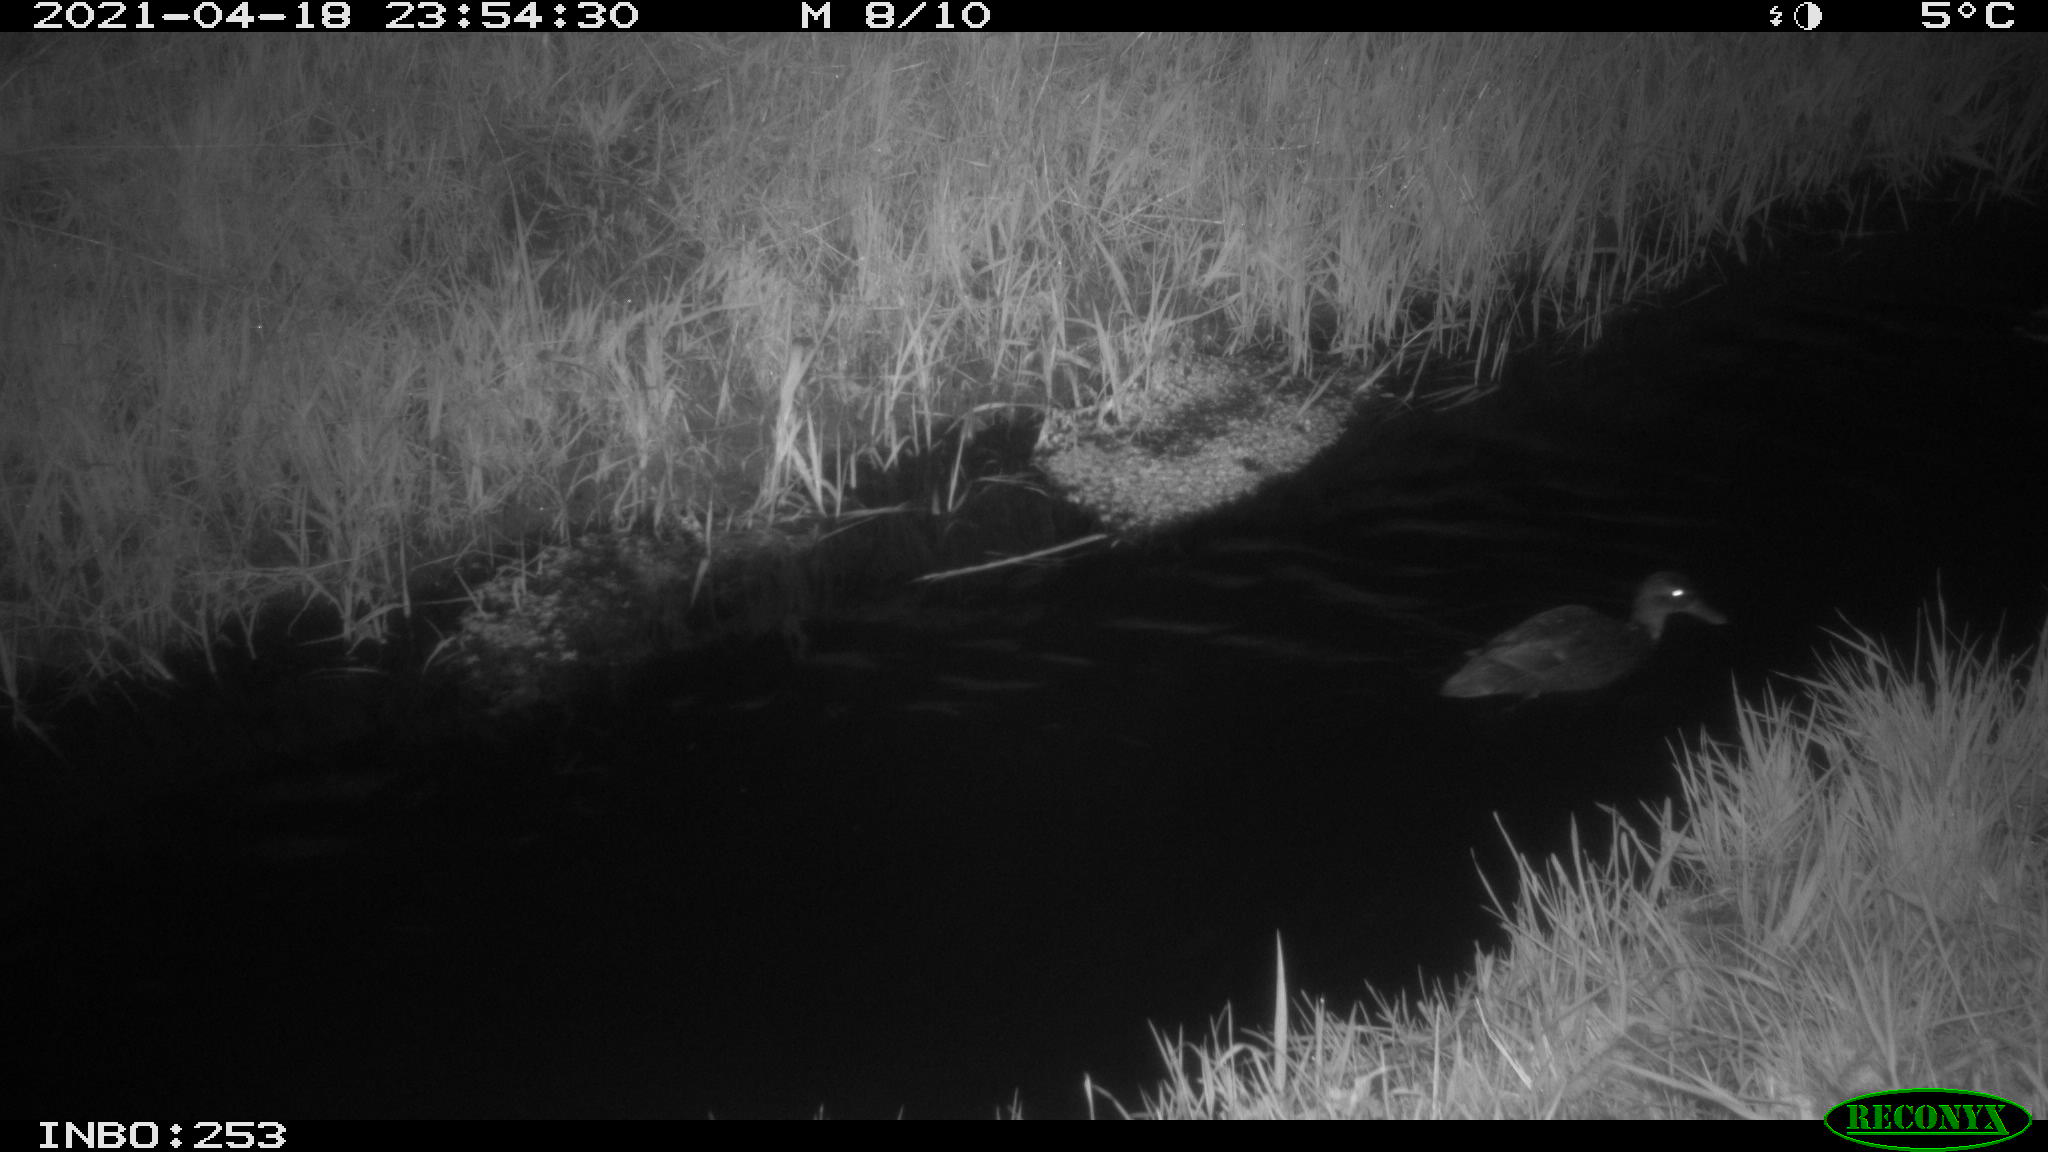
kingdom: Animalia
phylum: Chordata
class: Aves
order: Anseriformes
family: Anatidae
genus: Anas
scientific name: Anas platyrhynchos
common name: Mallard
